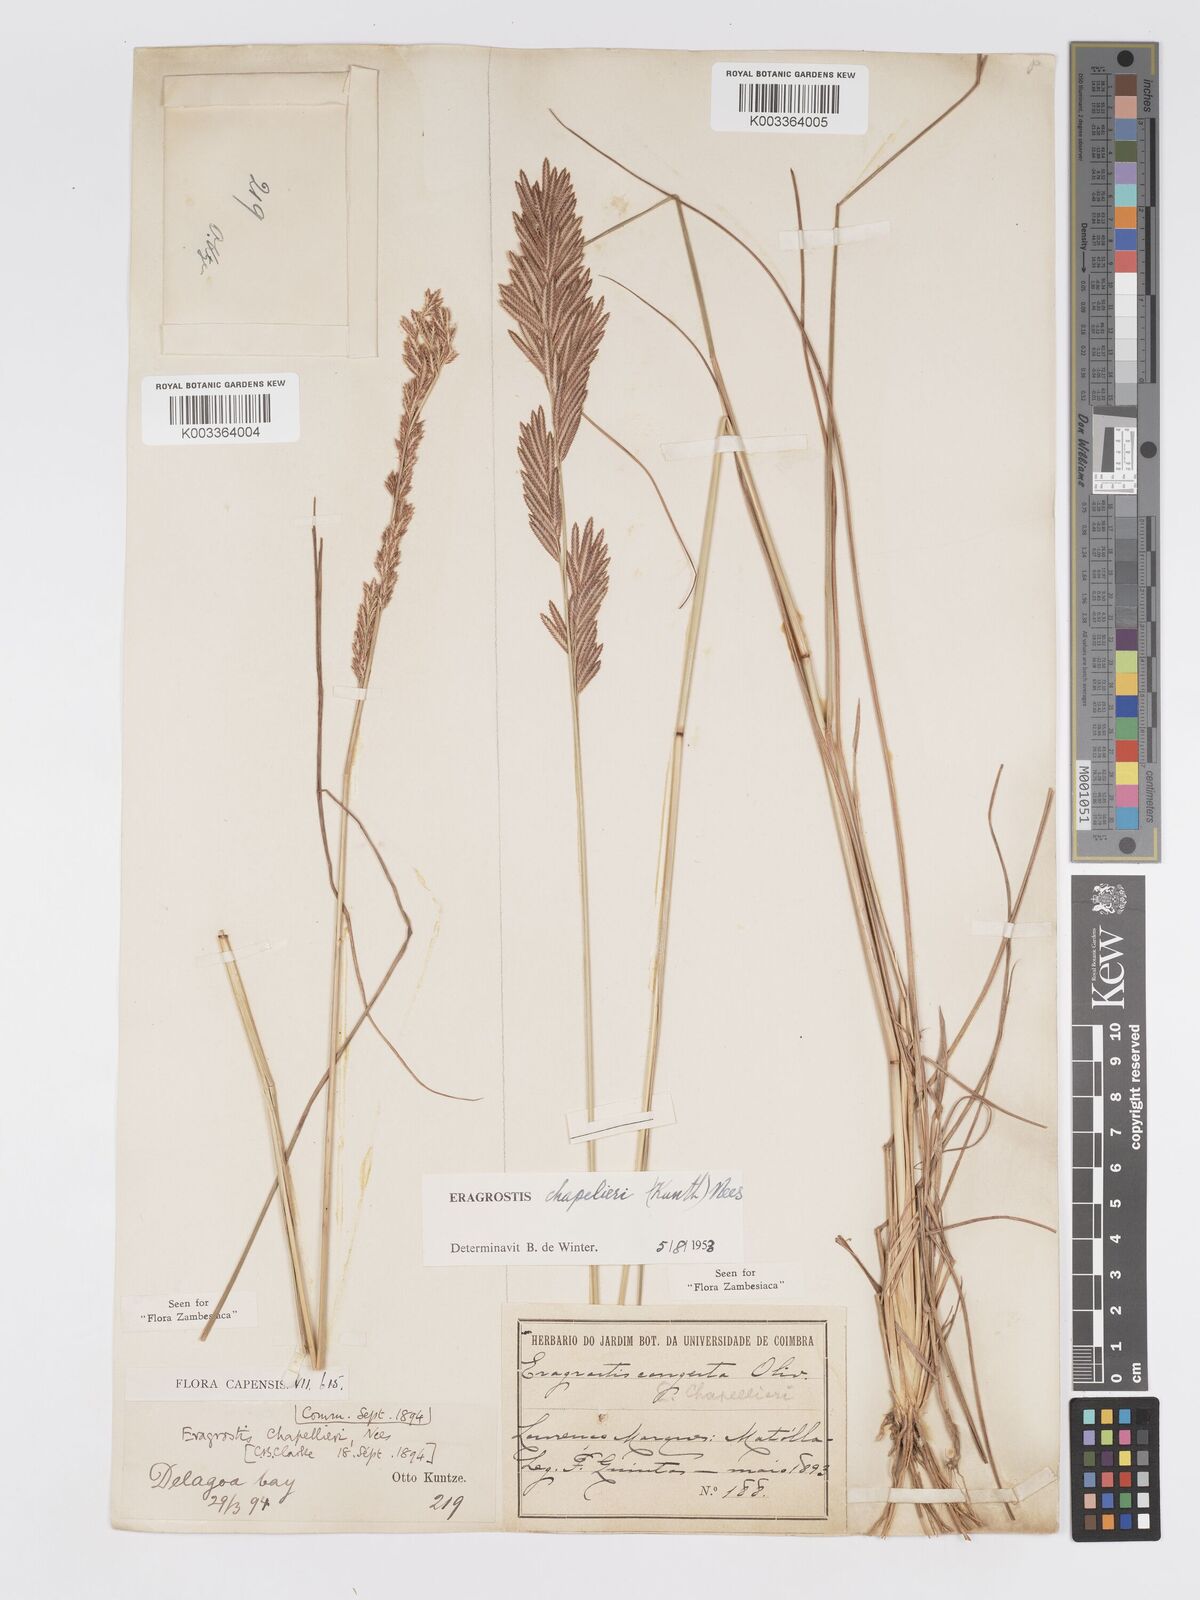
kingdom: Plantae
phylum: Tracheophyta
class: Liliopsida
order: Poales
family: Poaceae
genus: Eragrostis
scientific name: Eragrostis chapelieri
